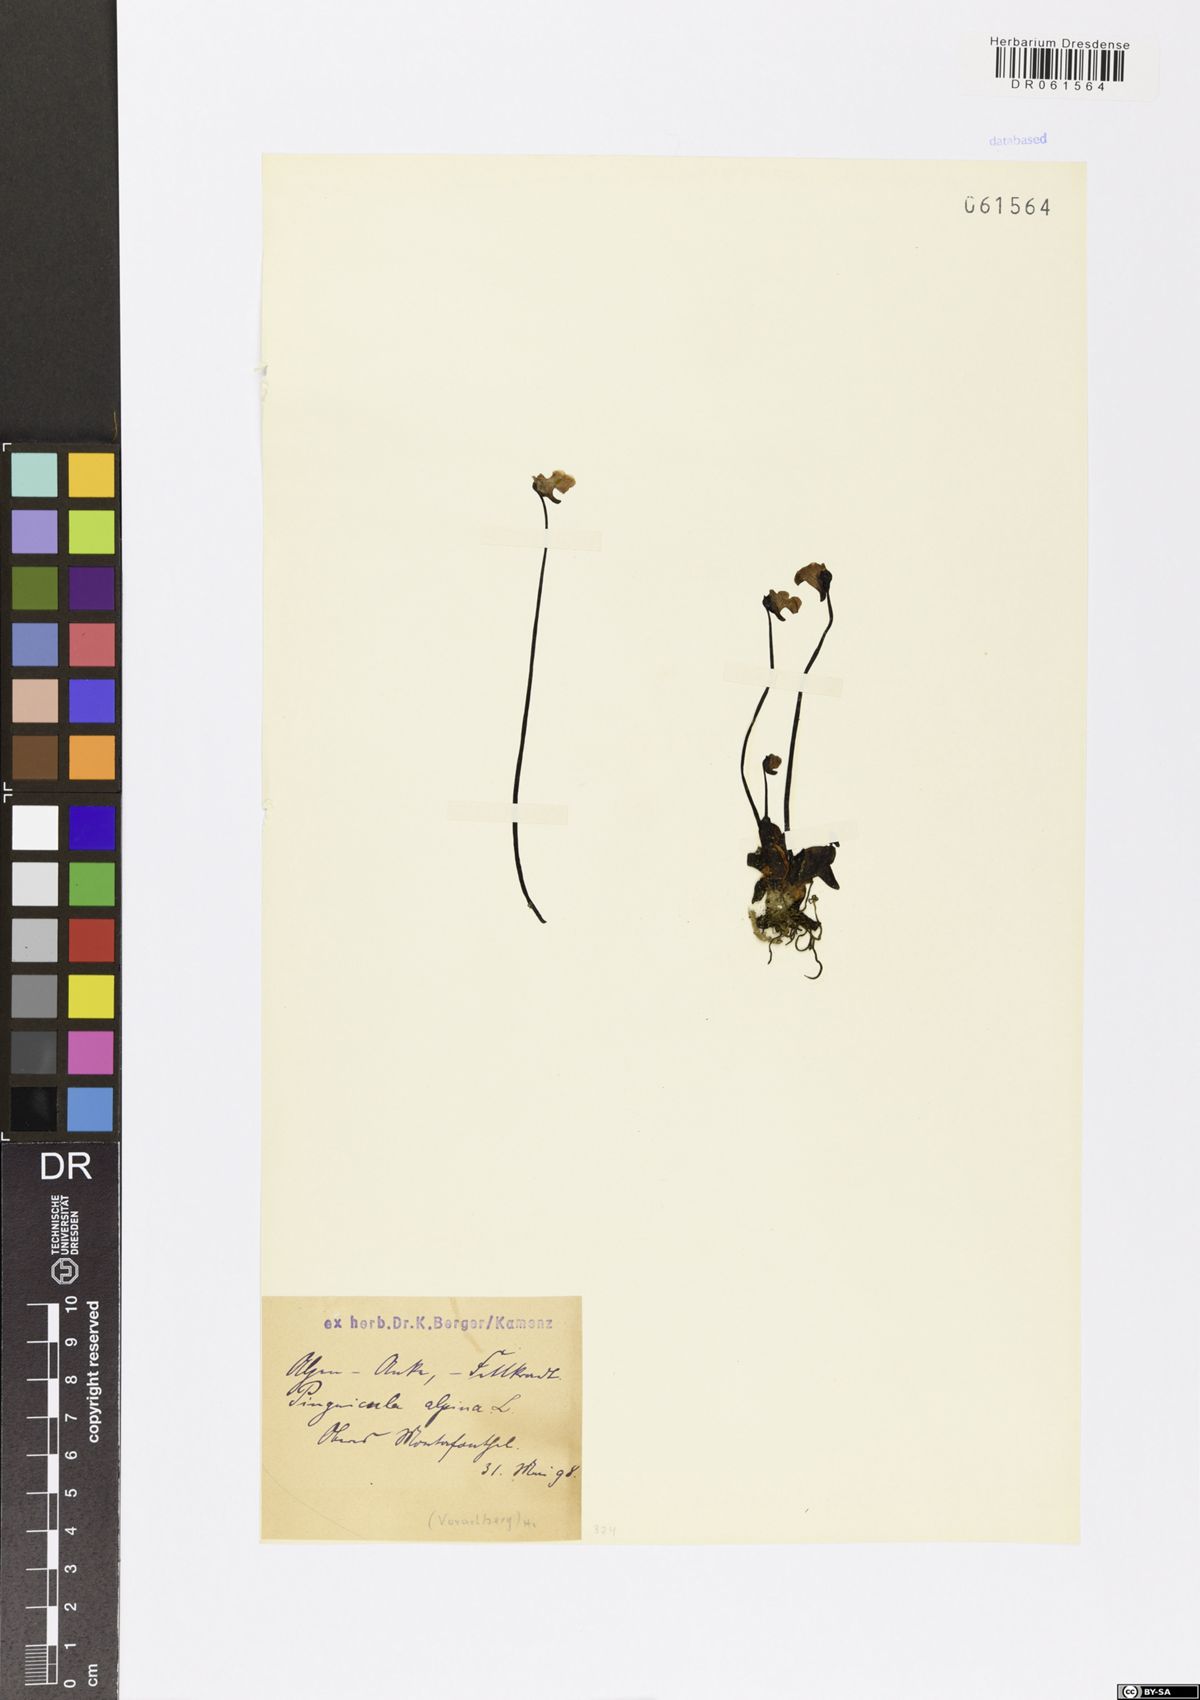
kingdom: Plantae
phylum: Tracheophyta
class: Magnoliopsida
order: Lamiales
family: Lentibulariaceae
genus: Pinguicula
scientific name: Pinguicula alpina
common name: Alpine butterwort
